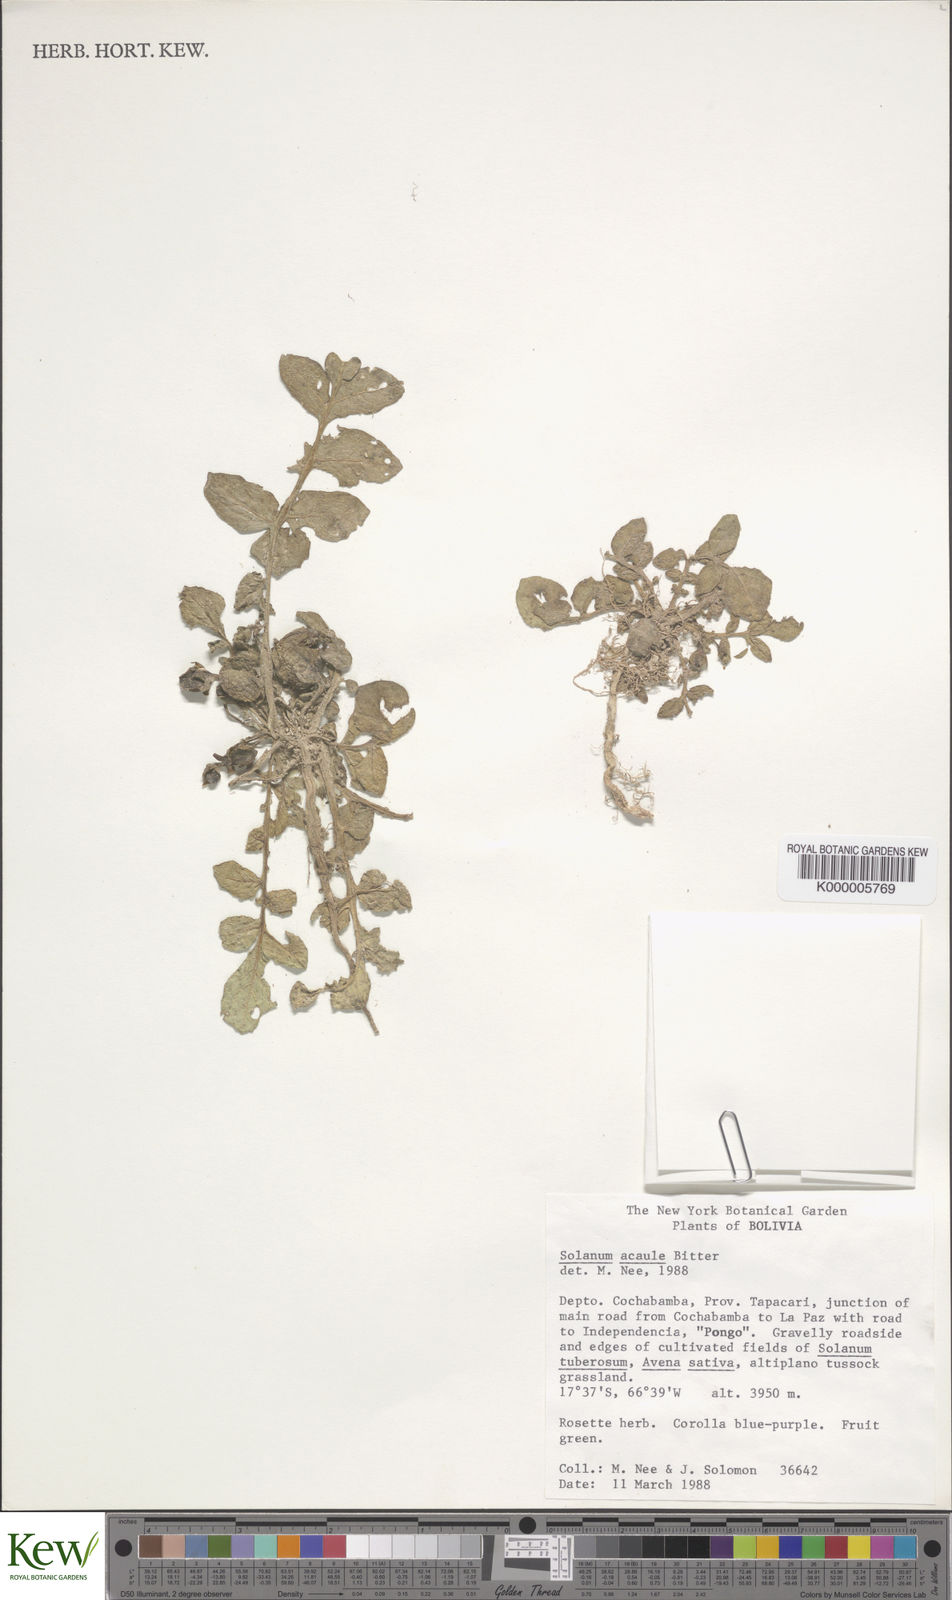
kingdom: Plantae
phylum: Tracheophyta
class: Magnoliopsida
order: Solanales
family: Solanaceae
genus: Solanum
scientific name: Solanum acaule
